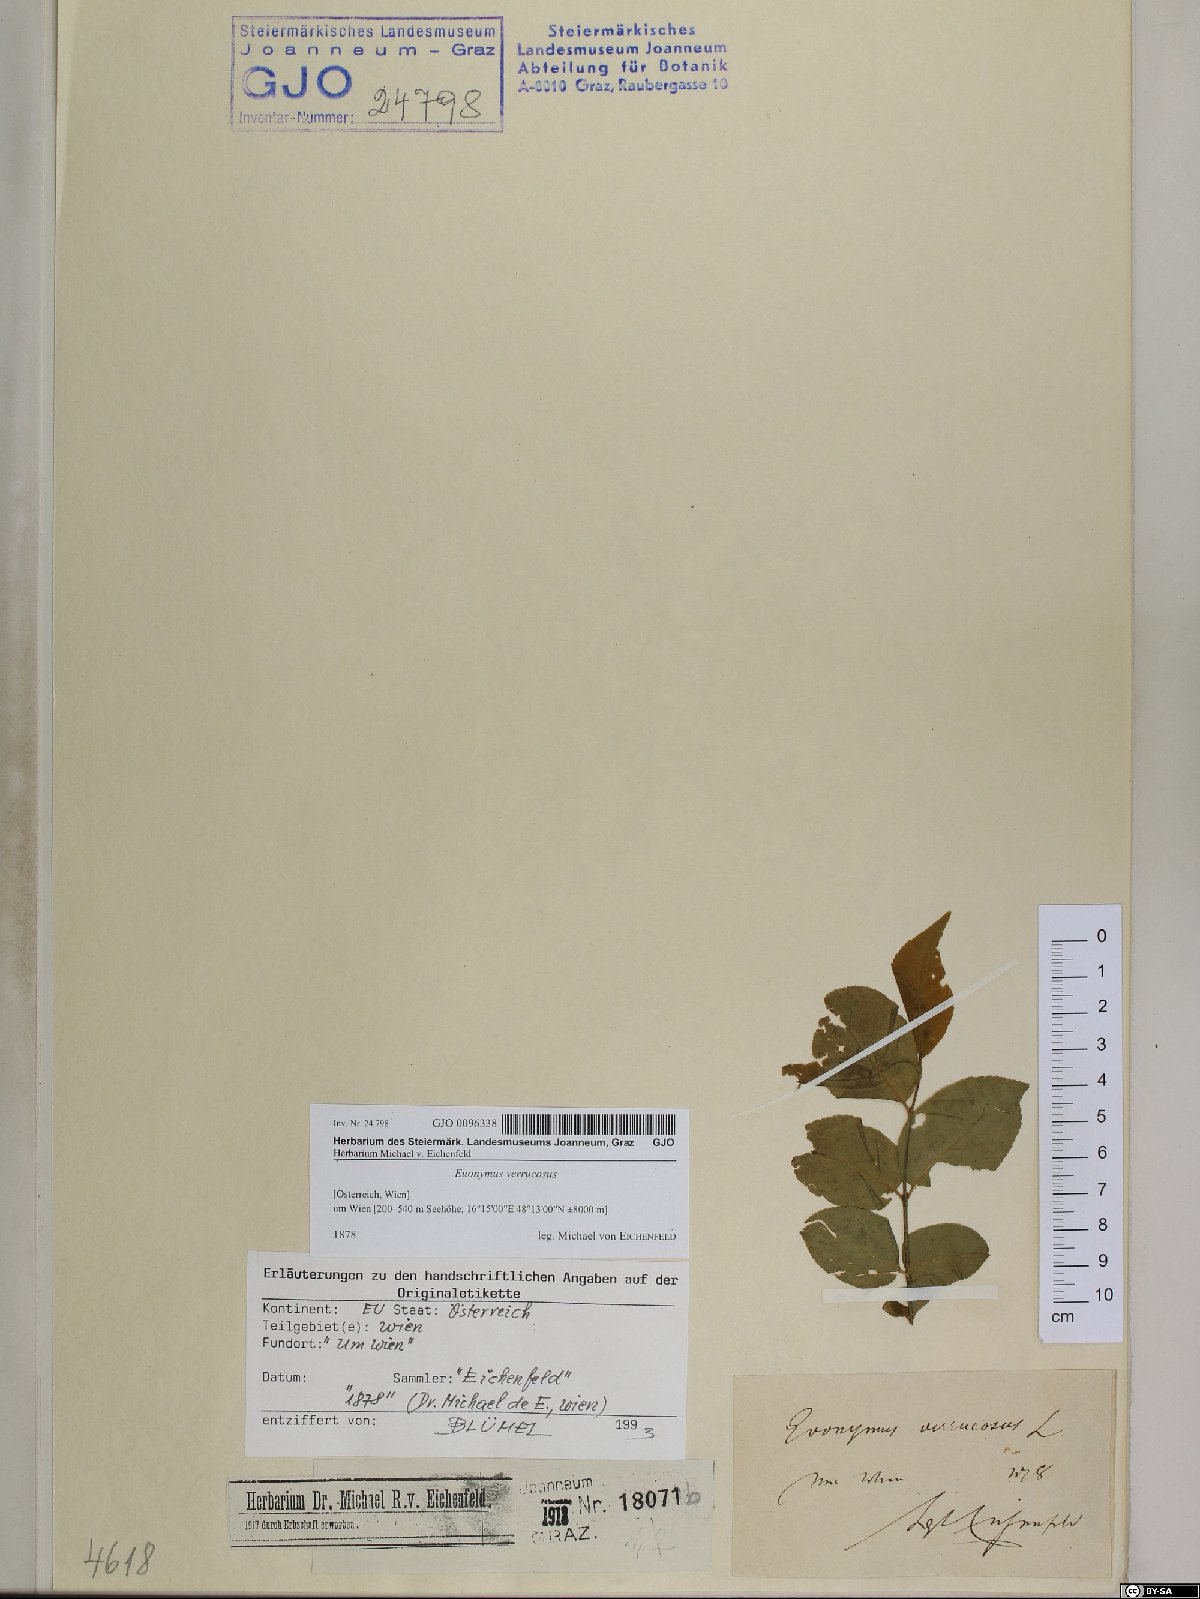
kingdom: Plantae
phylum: Tracheophyta
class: Magnoliopsida
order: Celastrales
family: Celastraceae
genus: Euonymus
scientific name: Euonymus verrucosus
